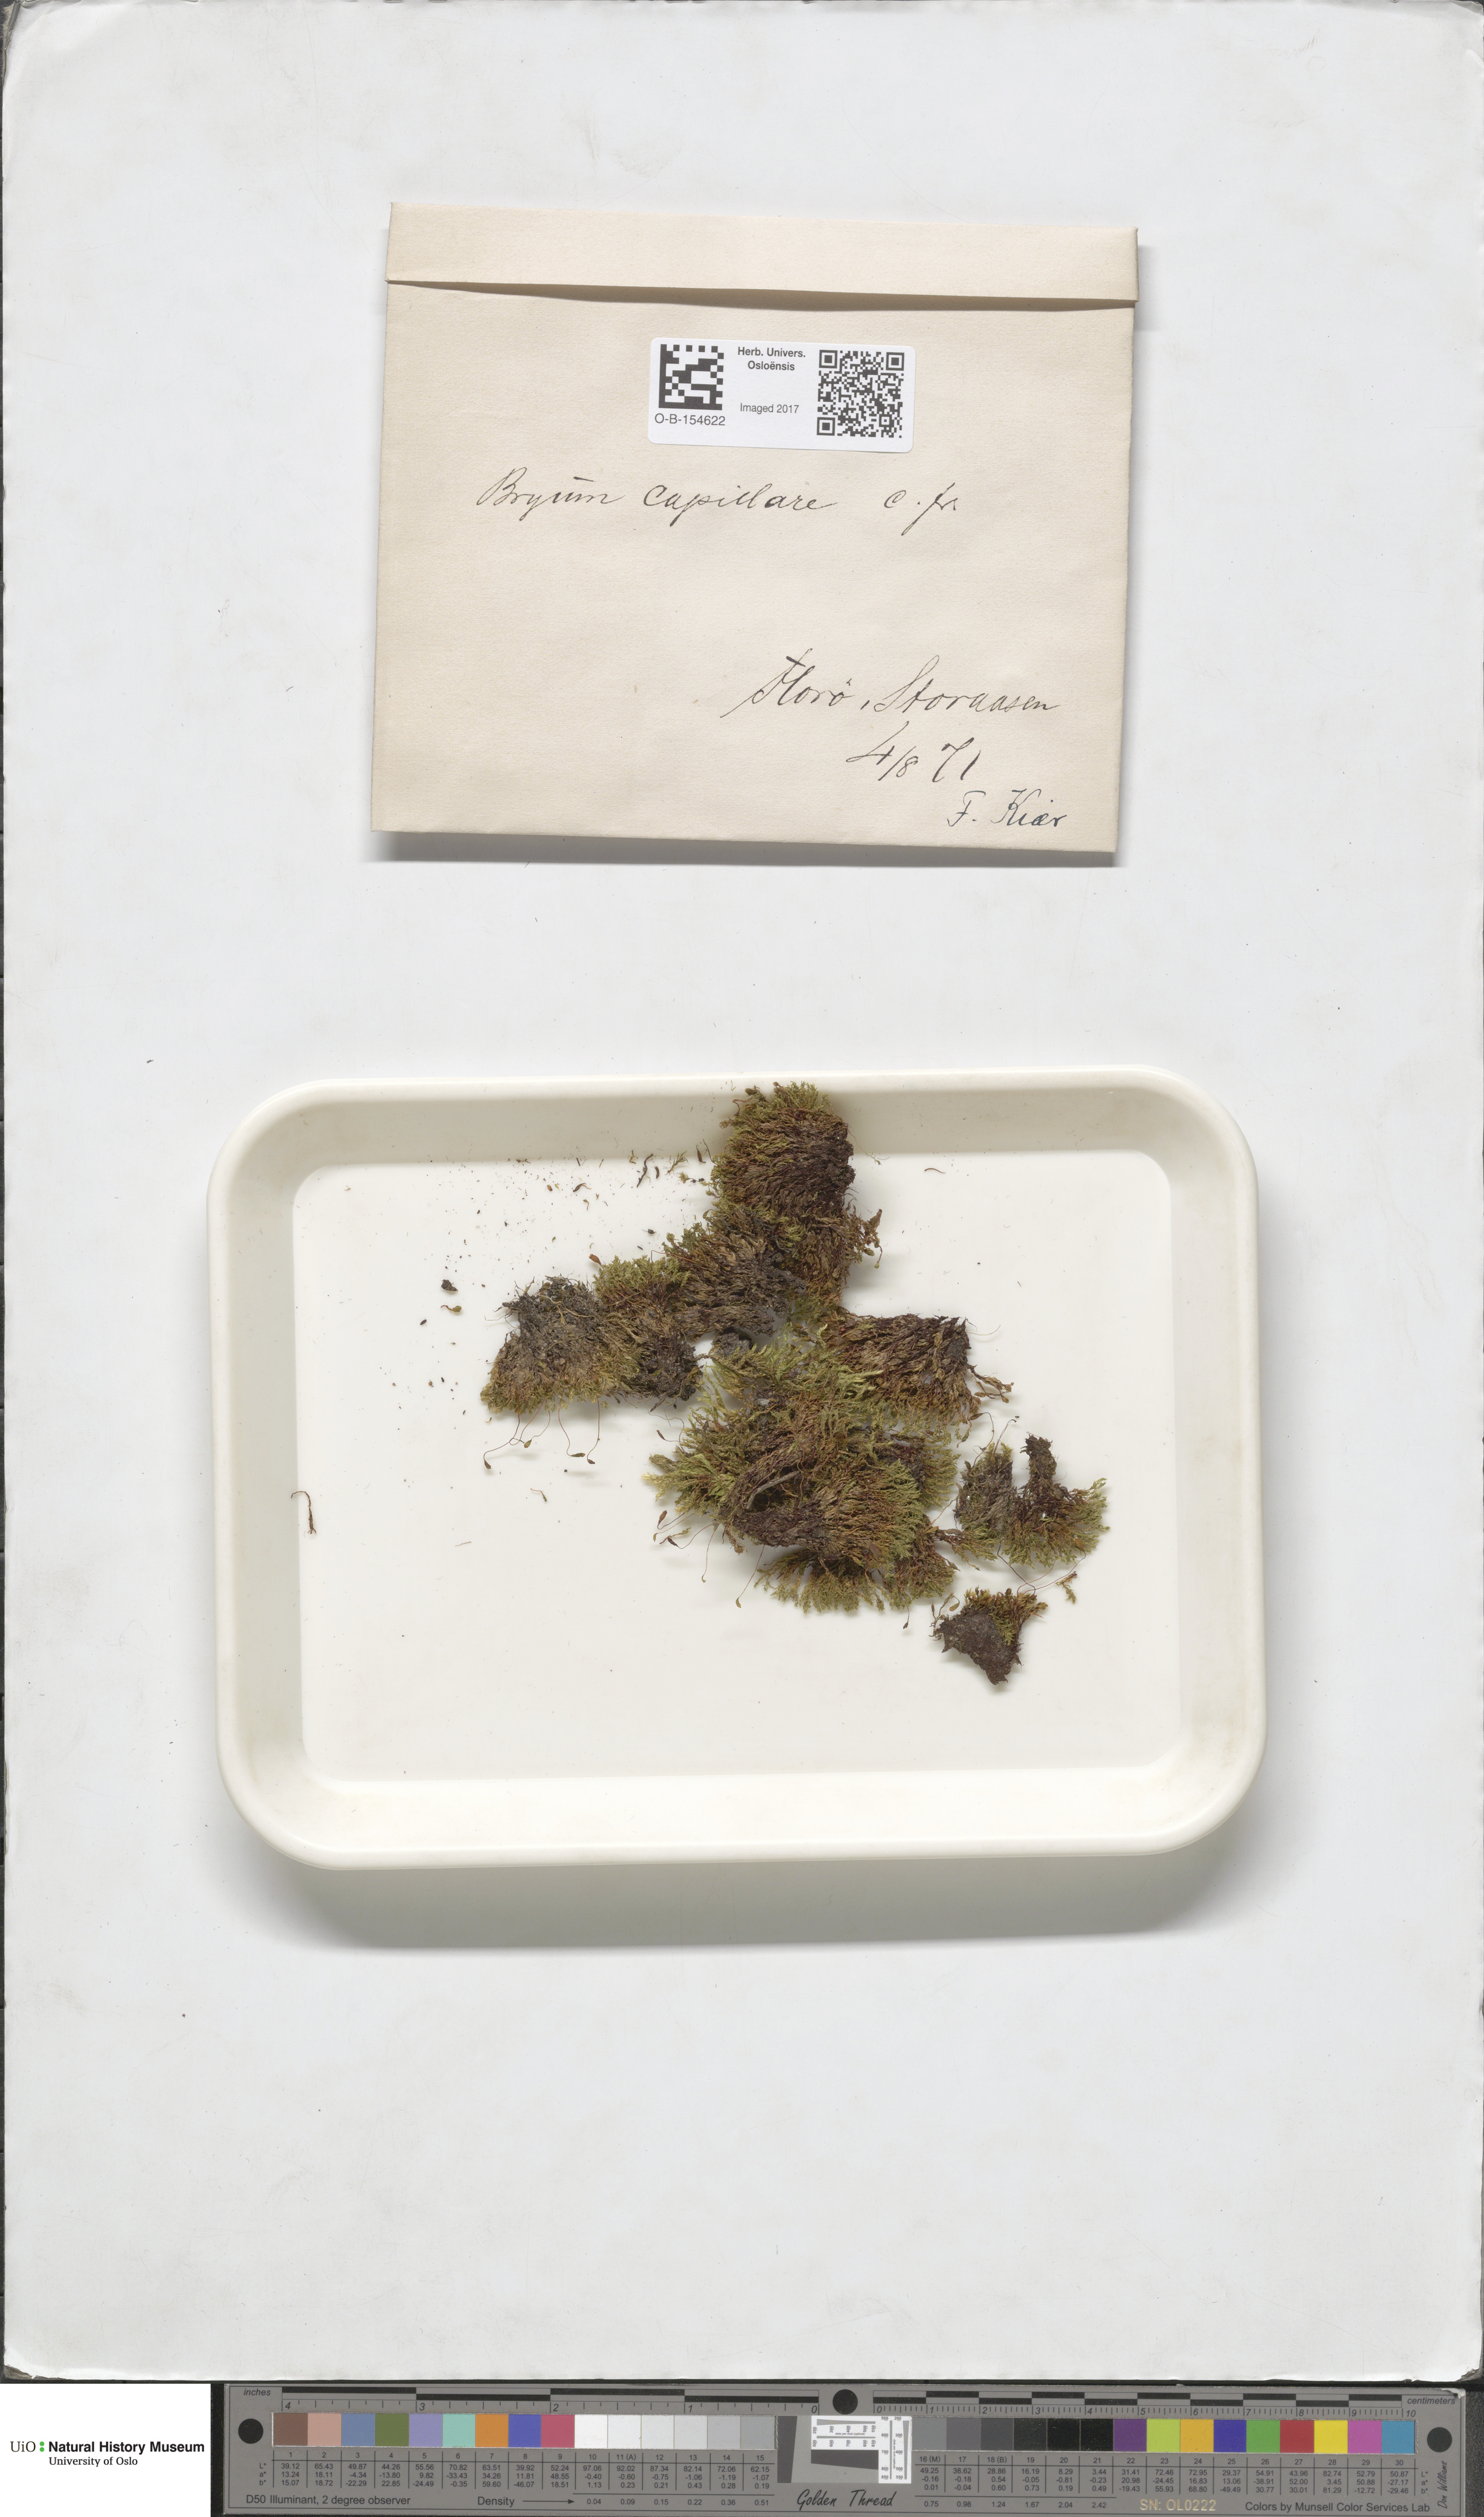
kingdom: Plantae
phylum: Bryophyta
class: Bryopsida
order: Bryales
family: Bryaceae
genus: Rosulabryum
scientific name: Rosulabryum capillare
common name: Capillary thread-moss
